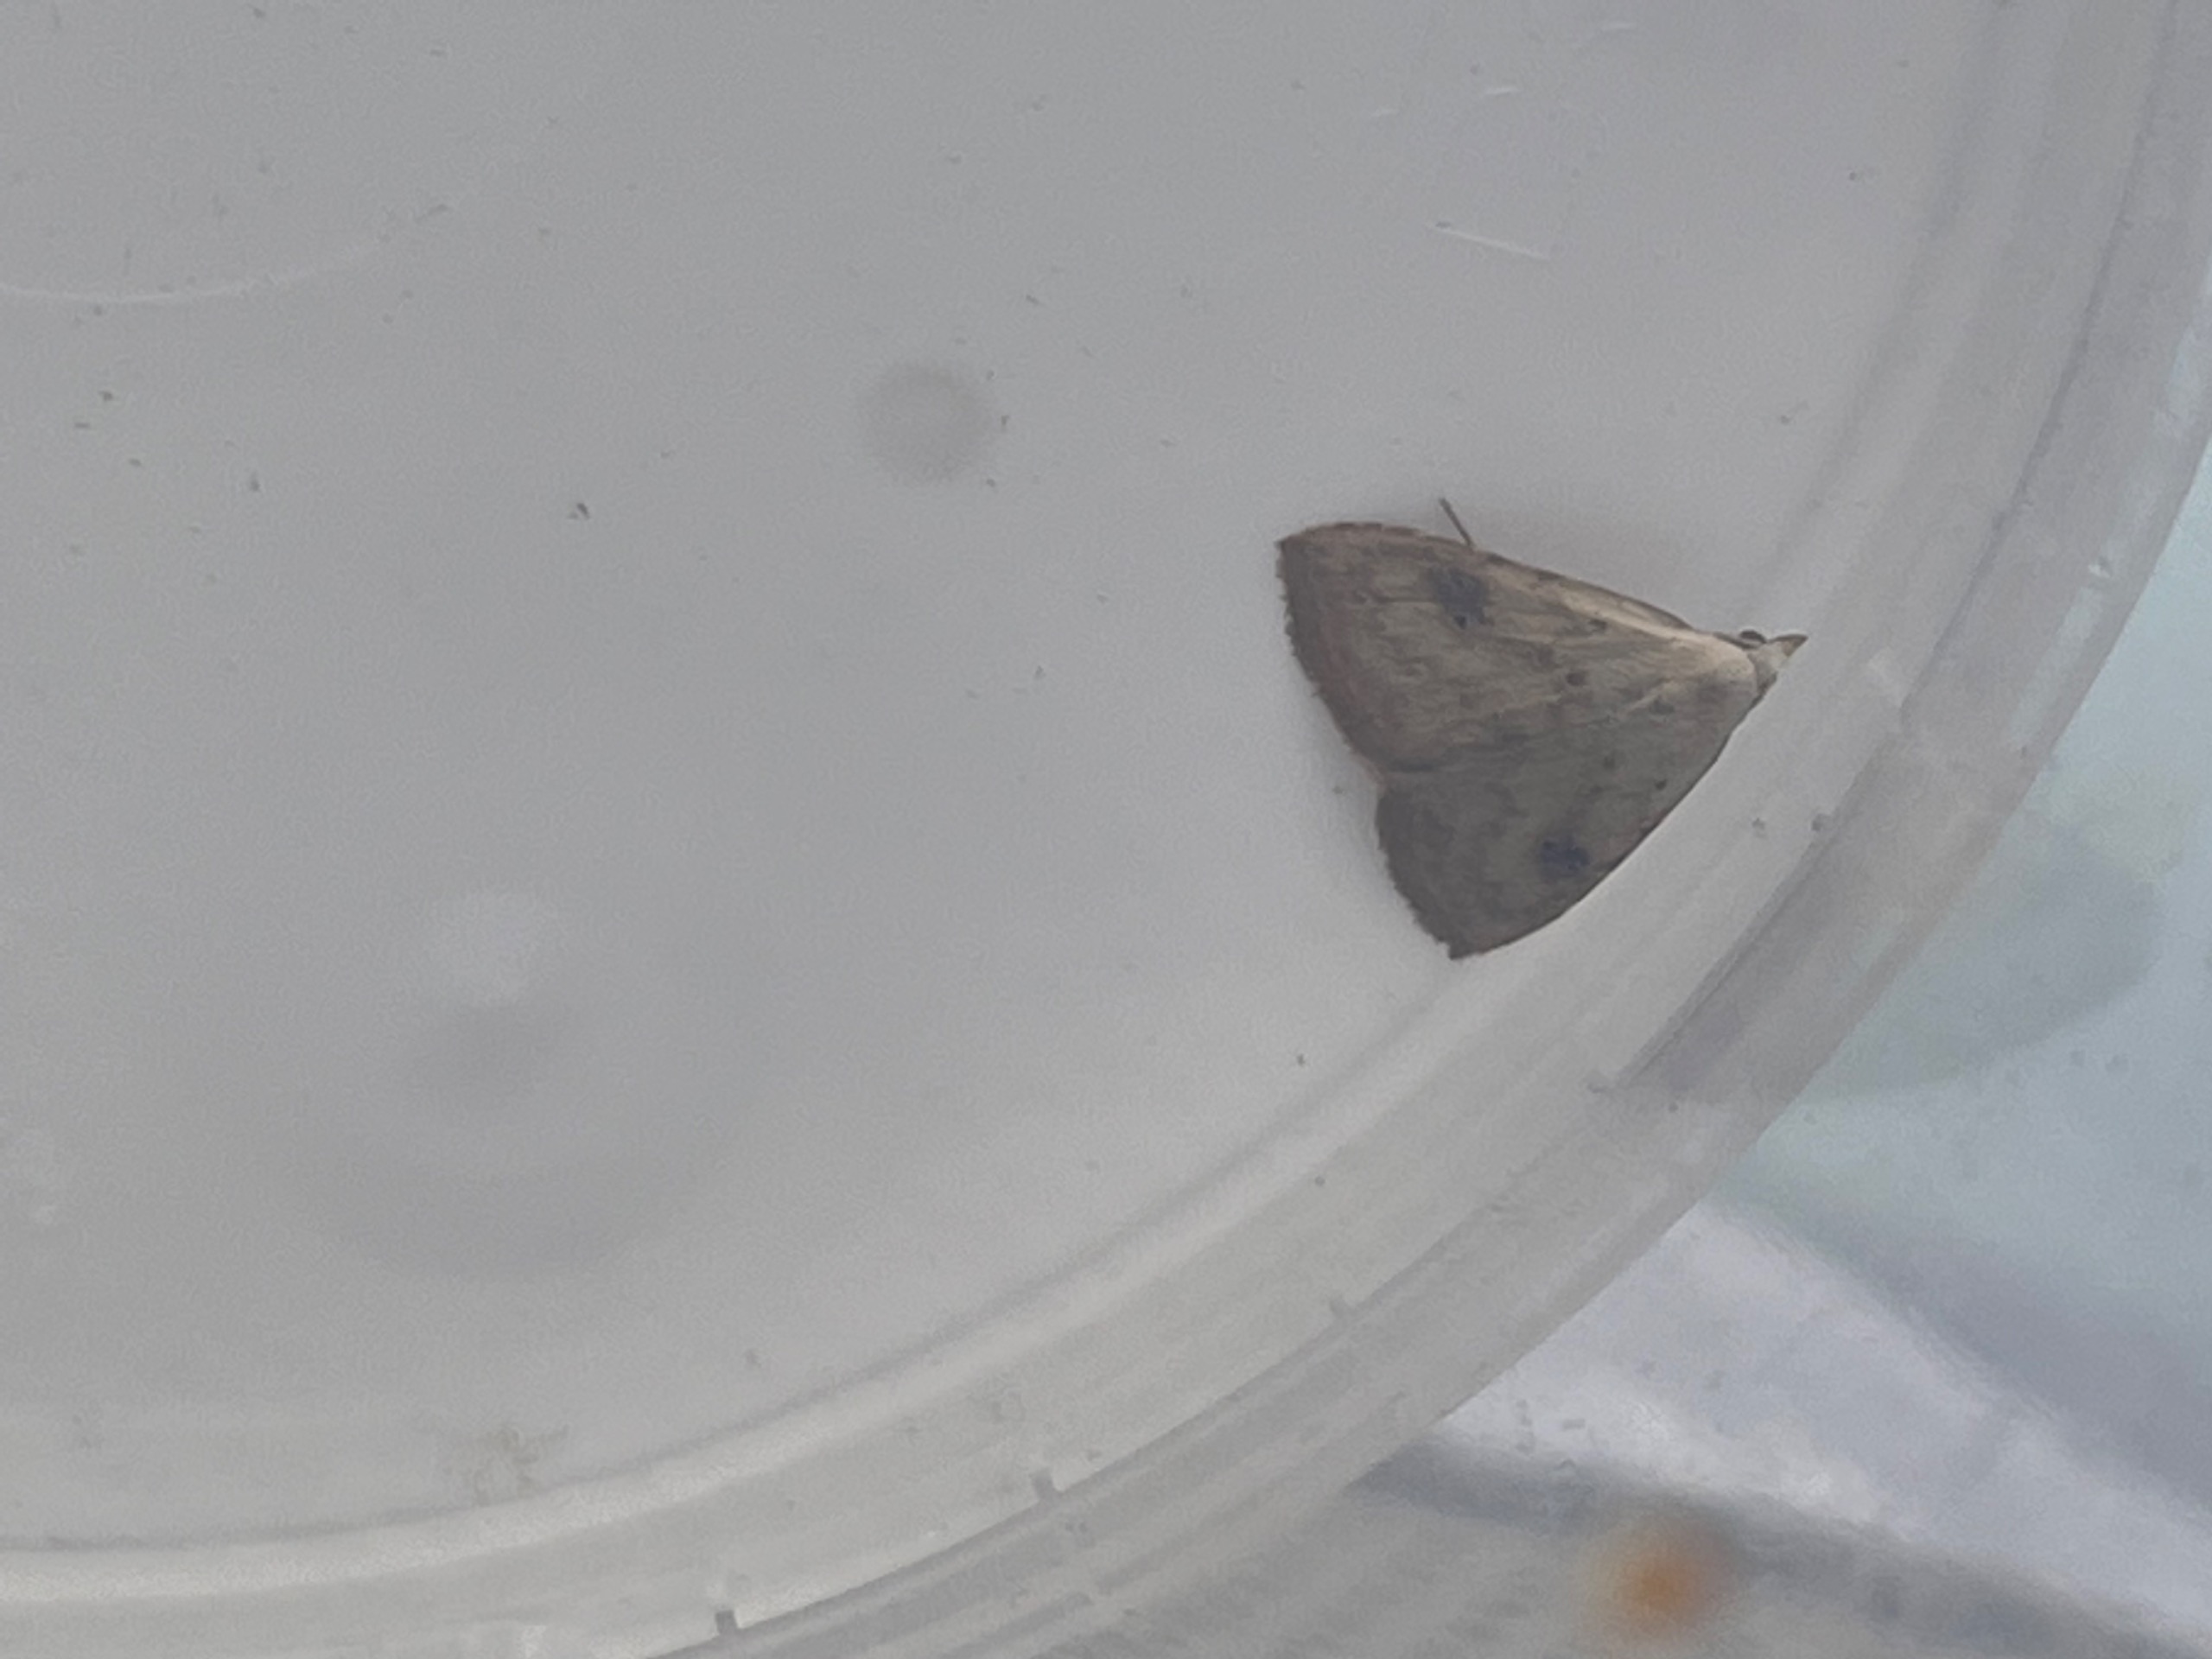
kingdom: Animalia
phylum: Arthropoda
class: Insecta
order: Lepidoptera
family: Erebidae
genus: Rivula
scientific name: Rivula sericealis
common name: Lille å-ugle
